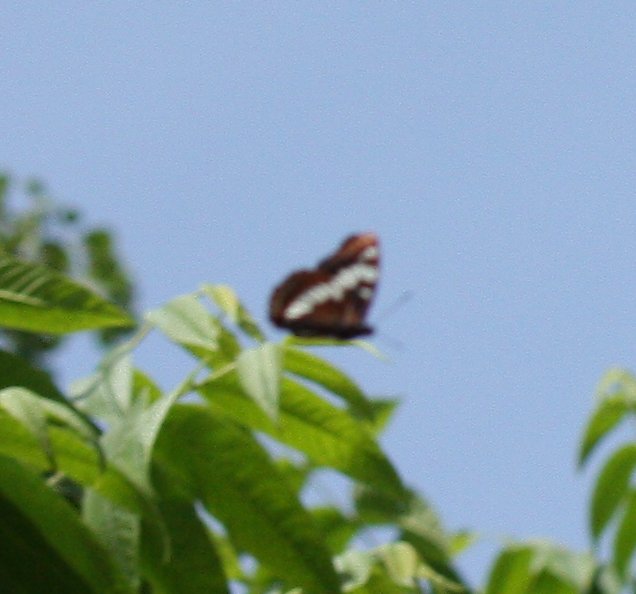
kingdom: Animalia
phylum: Arthropoda
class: Insecta
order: Lepidoptera
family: Nymphalidae
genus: Limenitis
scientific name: Limenitis lorquini
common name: Lorquin's Admiral
